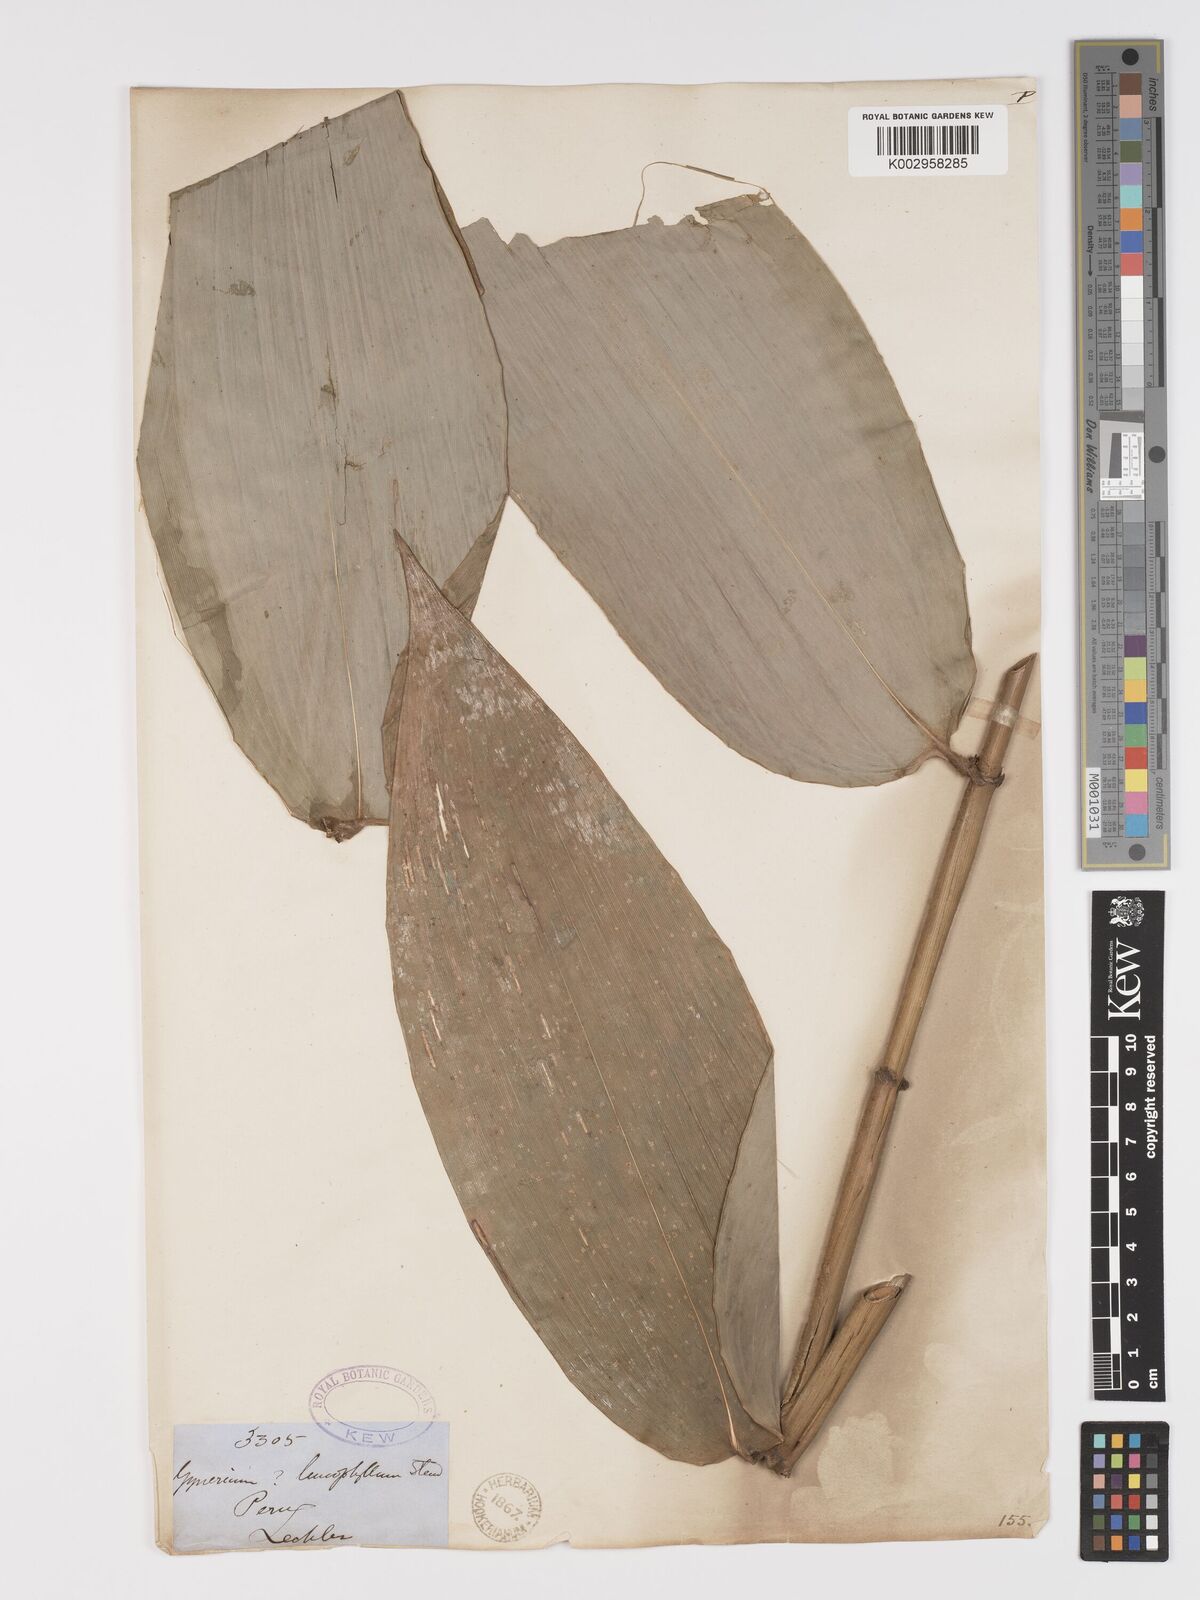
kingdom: Plantae
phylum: Tracheophyta
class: Liliopsida
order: Poales
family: Poaceae
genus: Taquara
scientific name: Taquara micrantha
